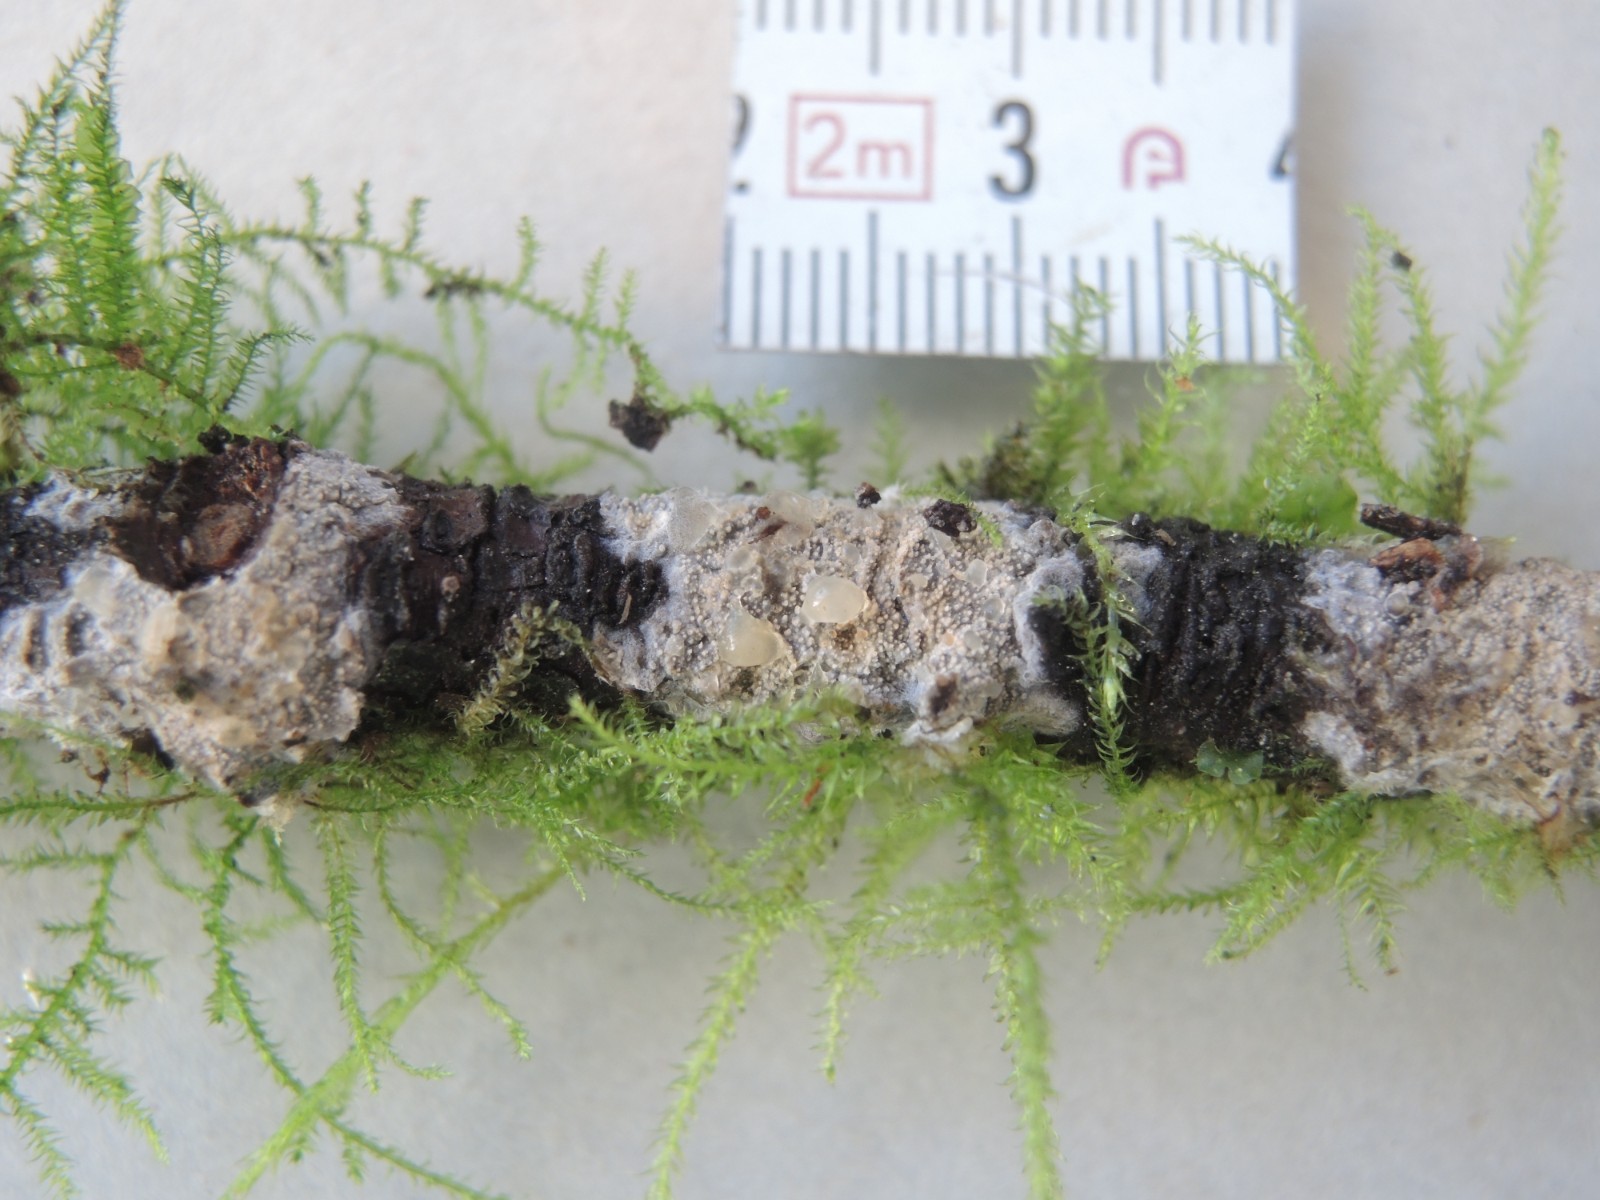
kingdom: Fungi
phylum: Basidiomycota
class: Agaricomycetes
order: Hymenochaetales
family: Rickenellaceae
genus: Resinicium
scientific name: Resinicium bicolor
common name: almindelig vokstand
